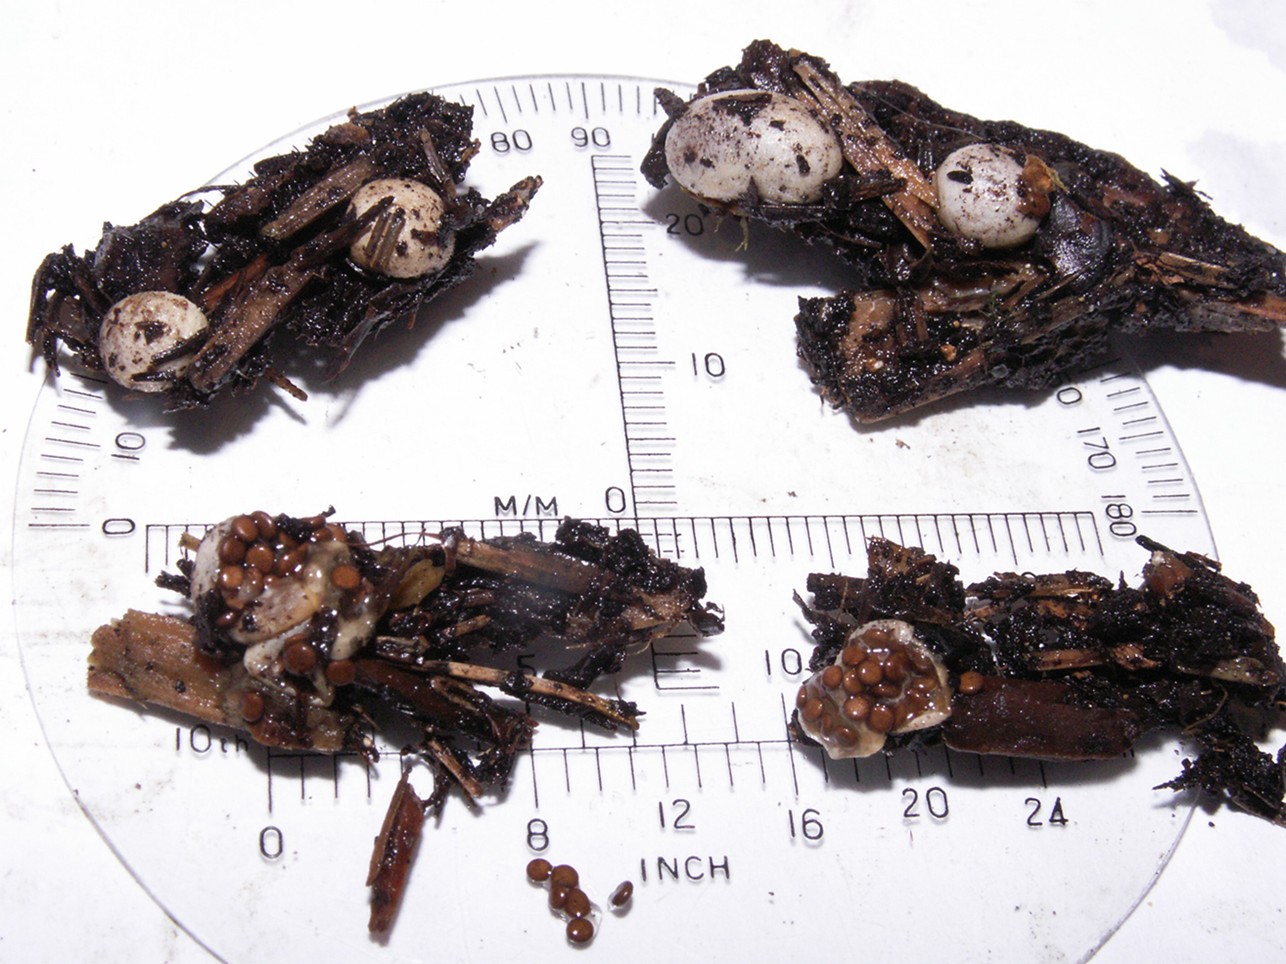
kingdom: Fungi
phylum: Basidiomycota
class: Agaricomycetes
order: Agaricales
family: Agaricaceae
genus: Nidularia
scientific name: Nidularia deformis
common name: pudesvamp
